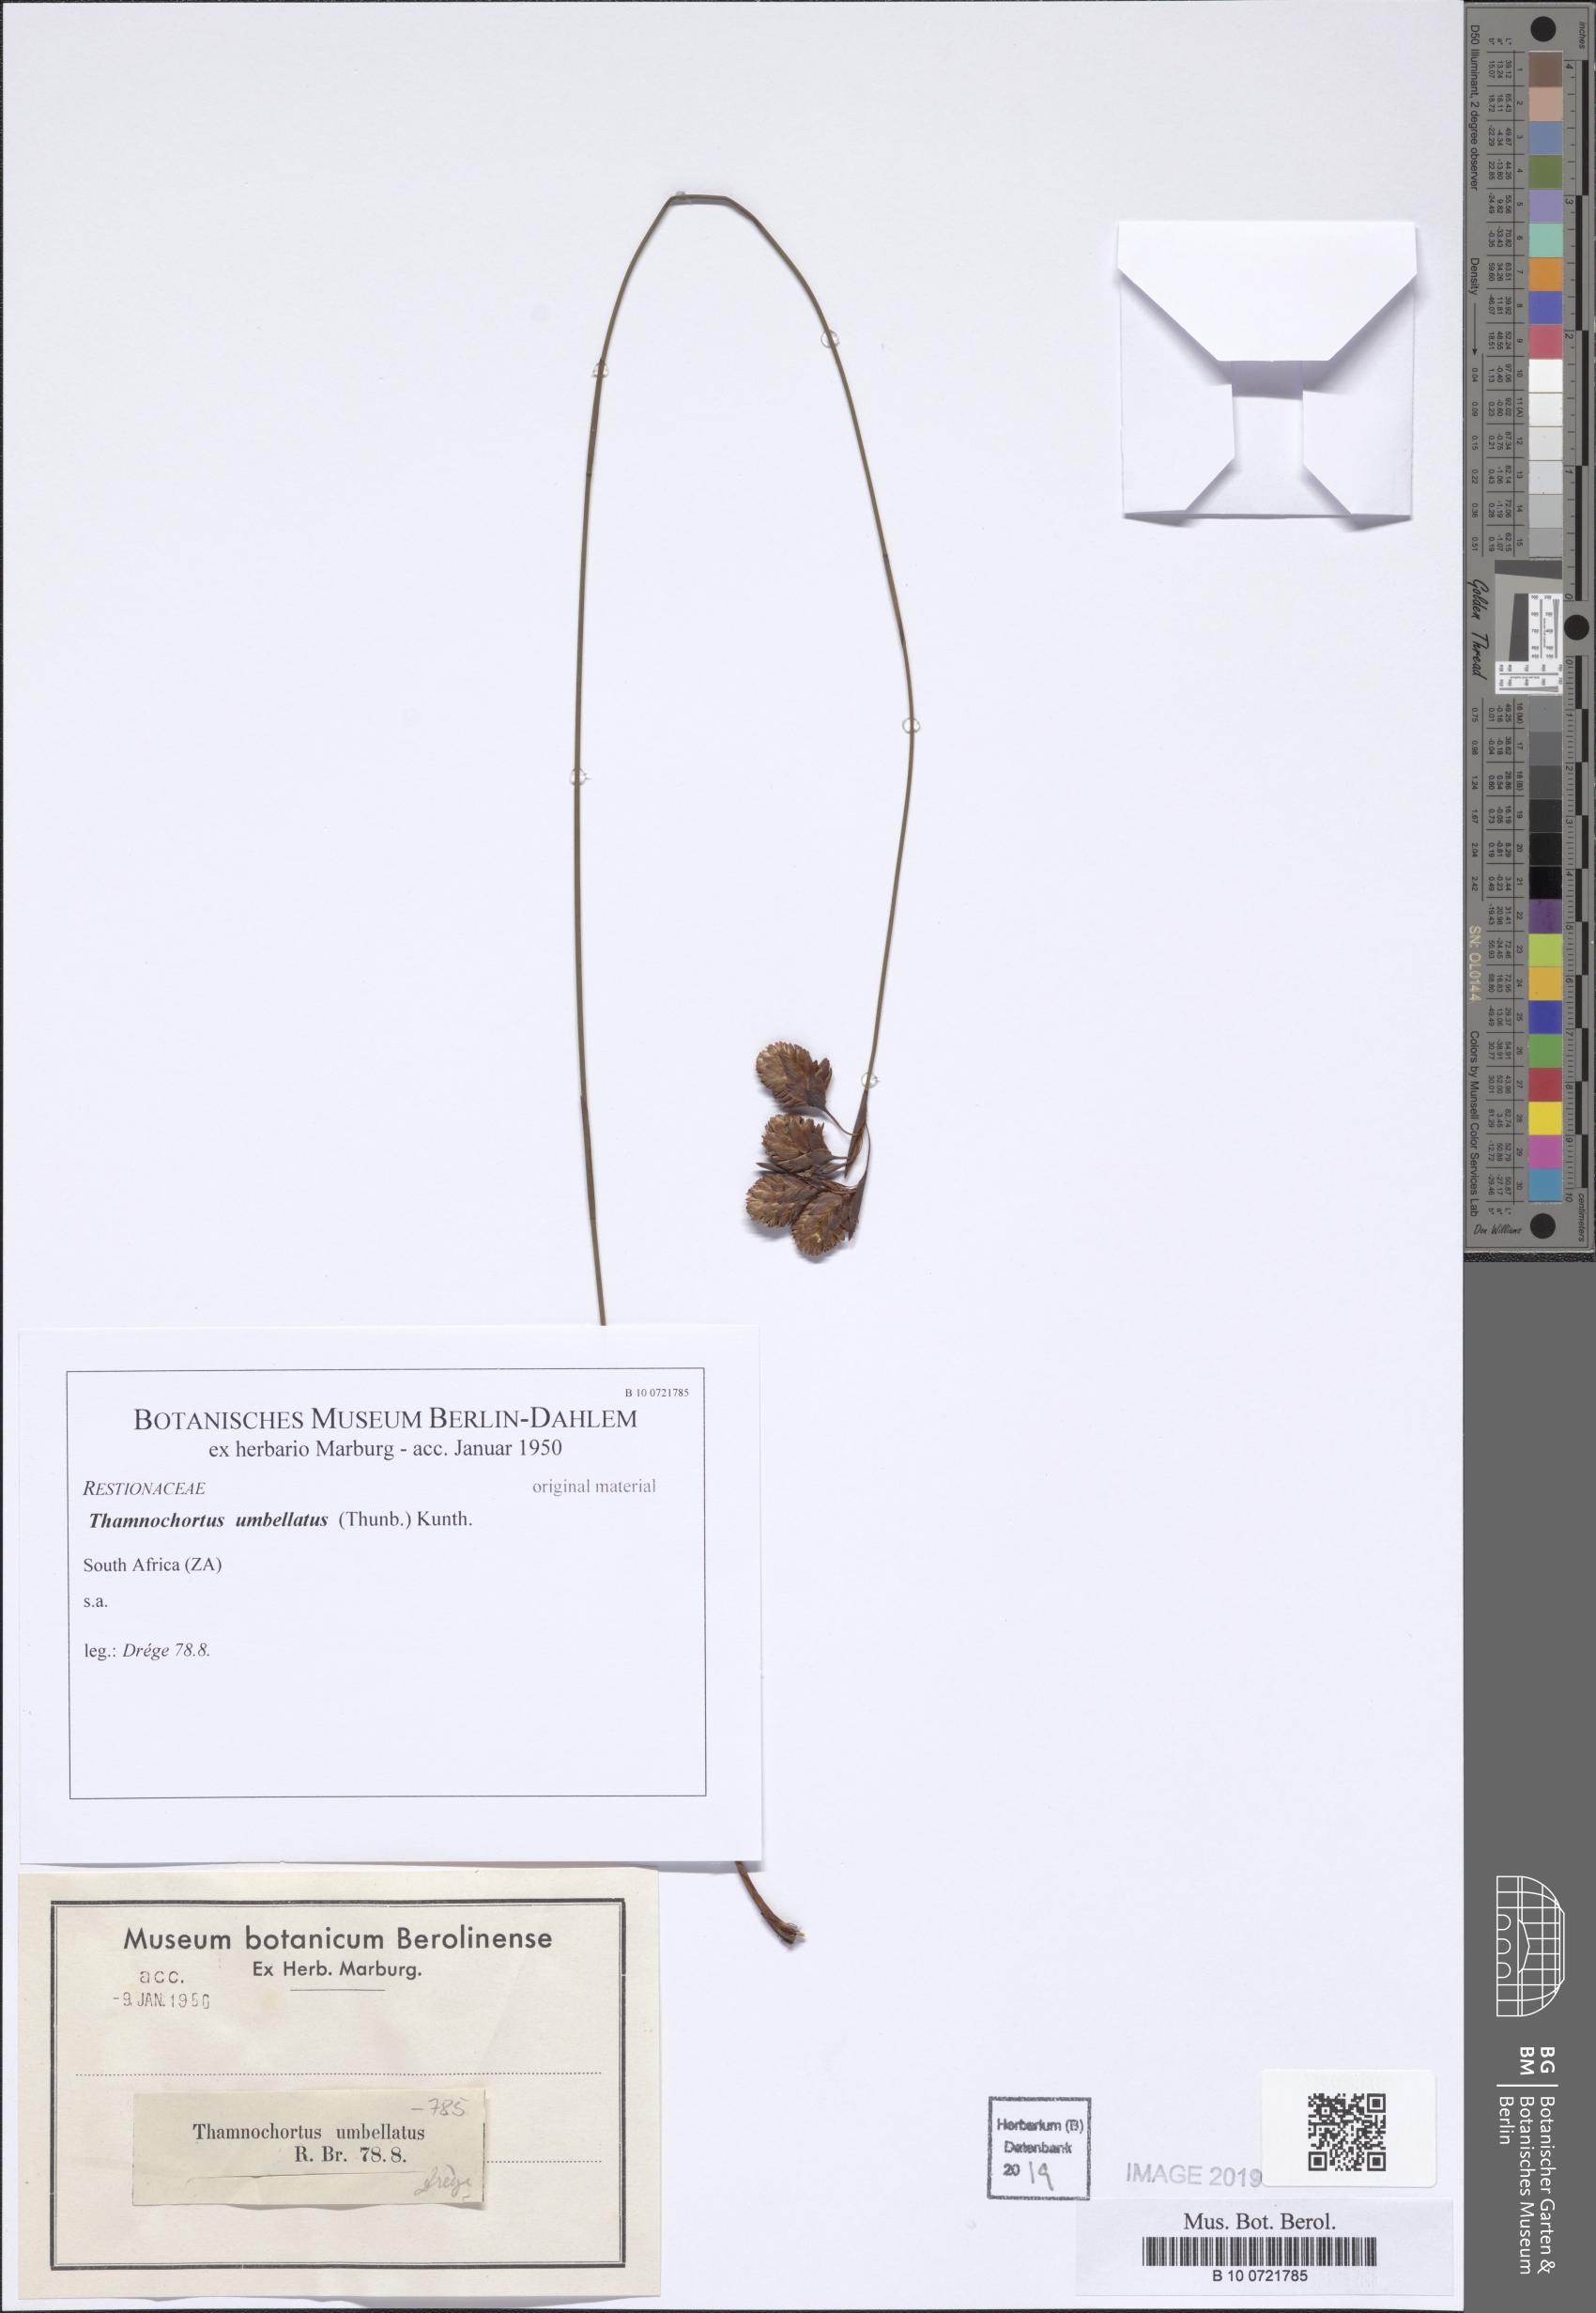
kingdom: Plantae
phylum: Tracheophyta
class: Liliopsida
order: Poales
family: Restionaceae
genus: Staberoha
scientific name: Staberoha distachyos
